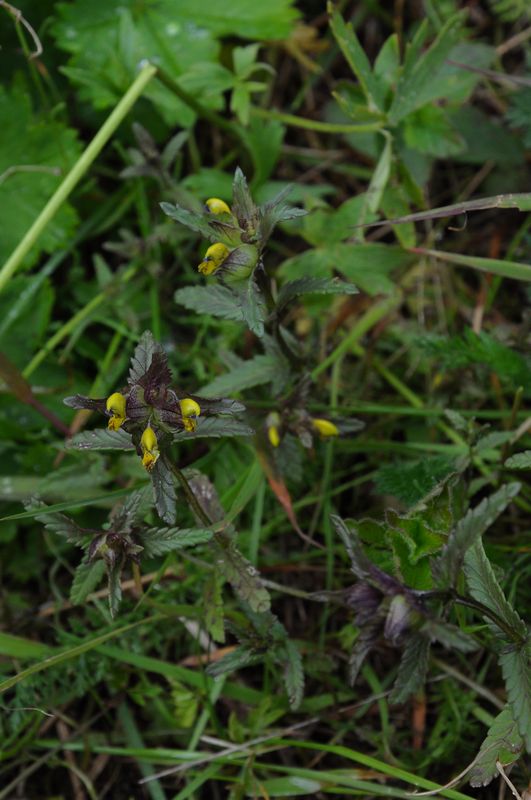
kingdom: Plantae
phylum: Tracheophyta
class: Magnoliopsida
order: Lamiales
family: Orobanchaceae
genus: Rhinanthus
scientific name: Rhinanthus minor
